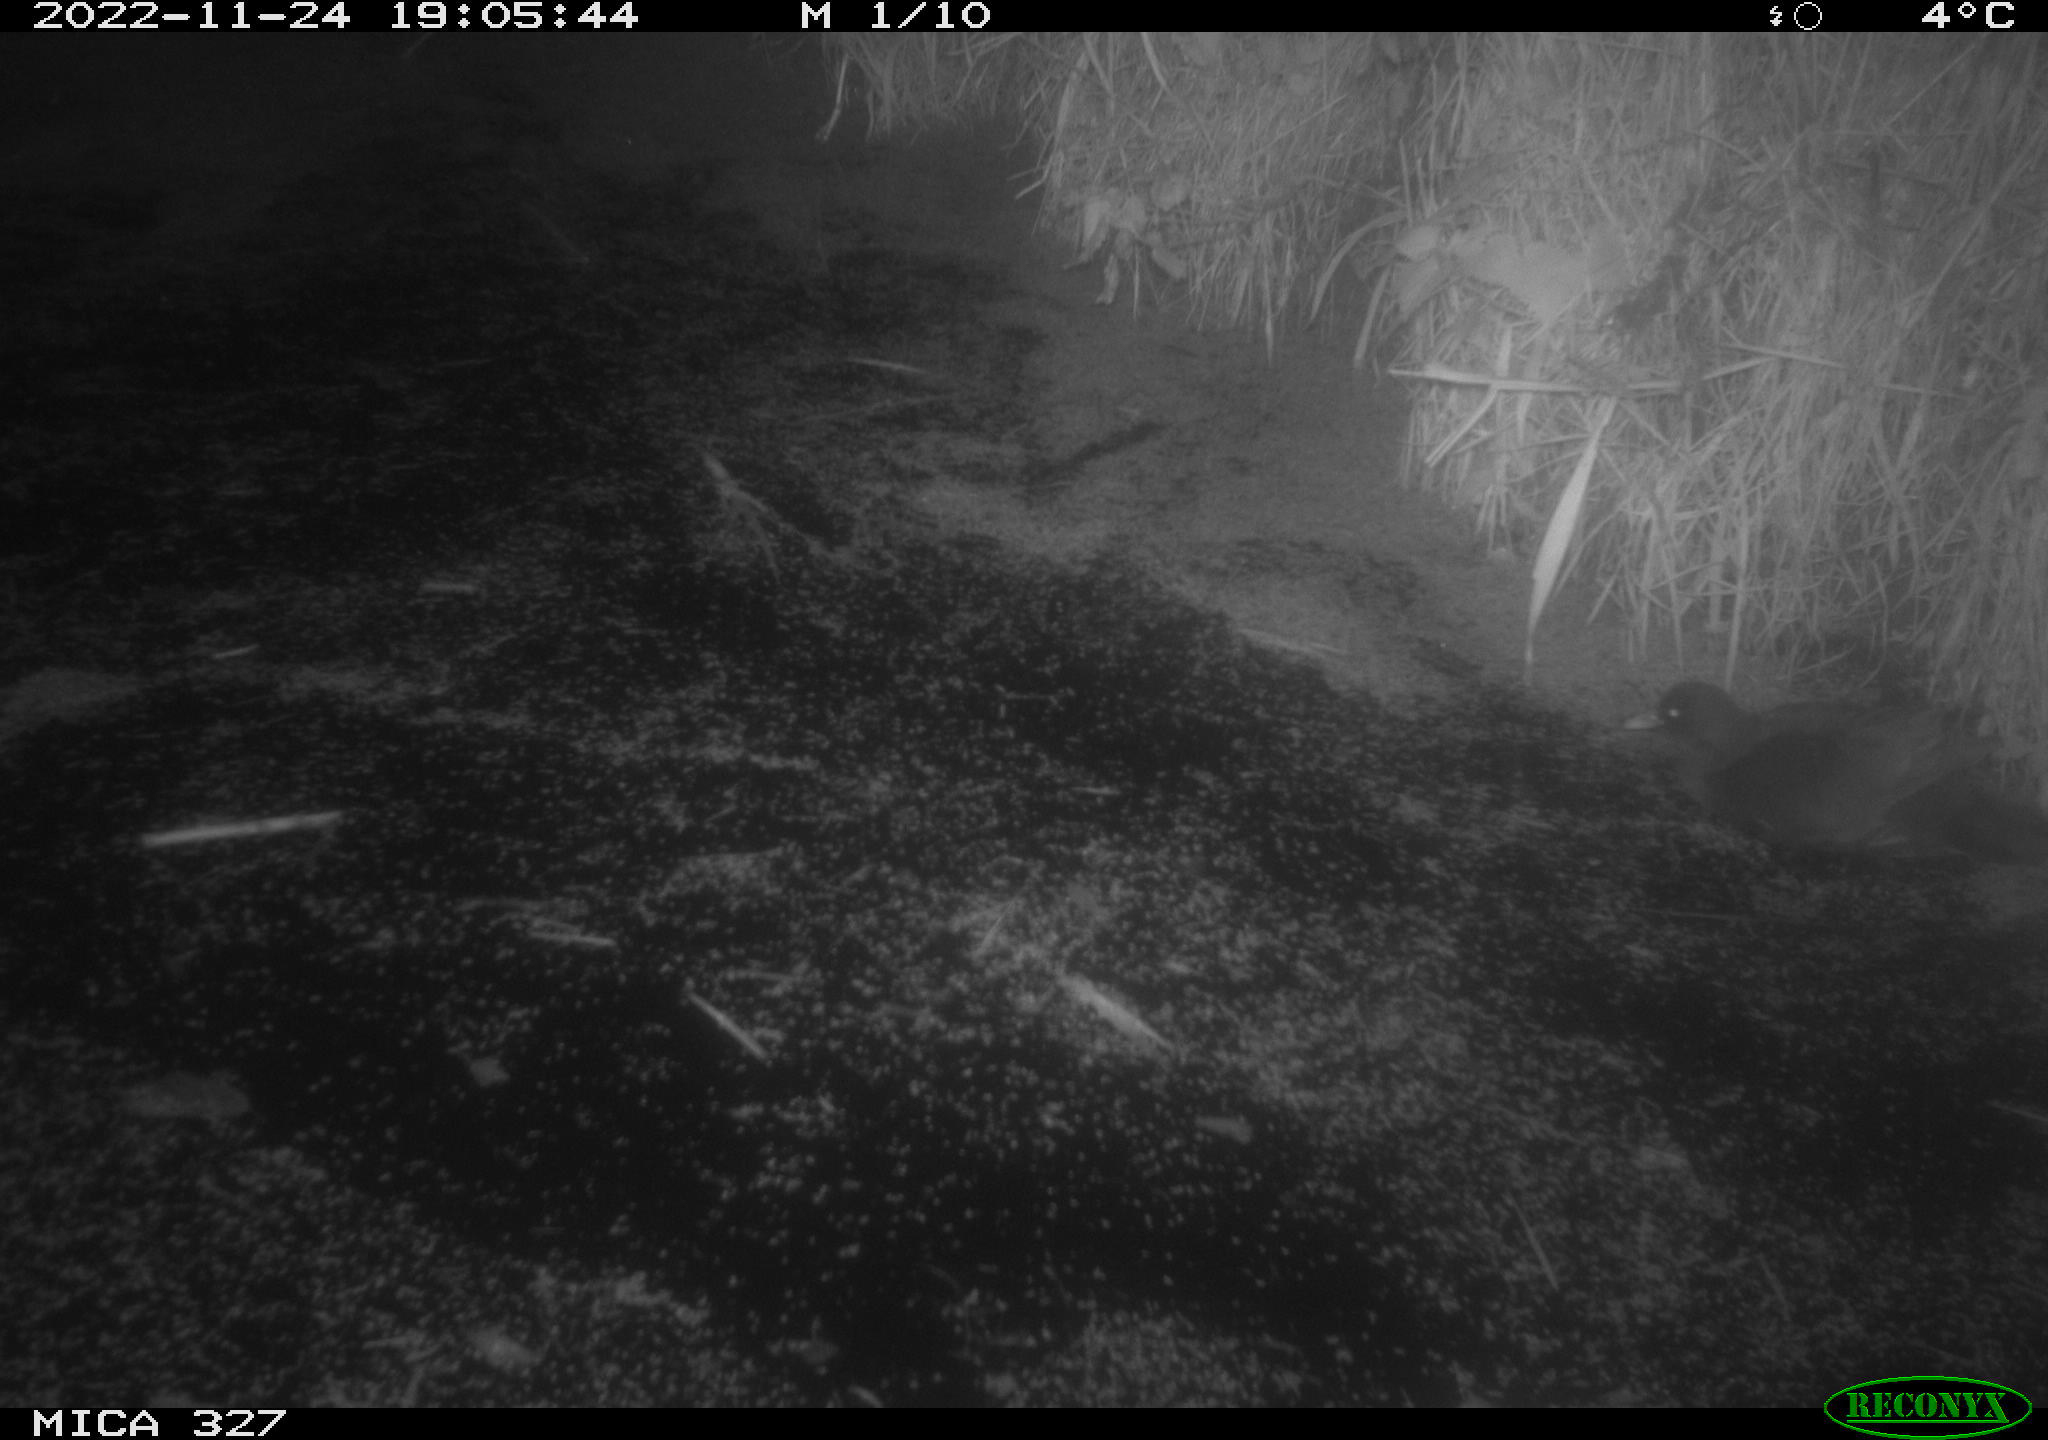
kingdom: Animalia
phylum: Chordata
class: Aves
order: Gruiformes
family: Rallidae
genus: Fulica
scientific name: Fulica atra
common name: Eurasian coot
